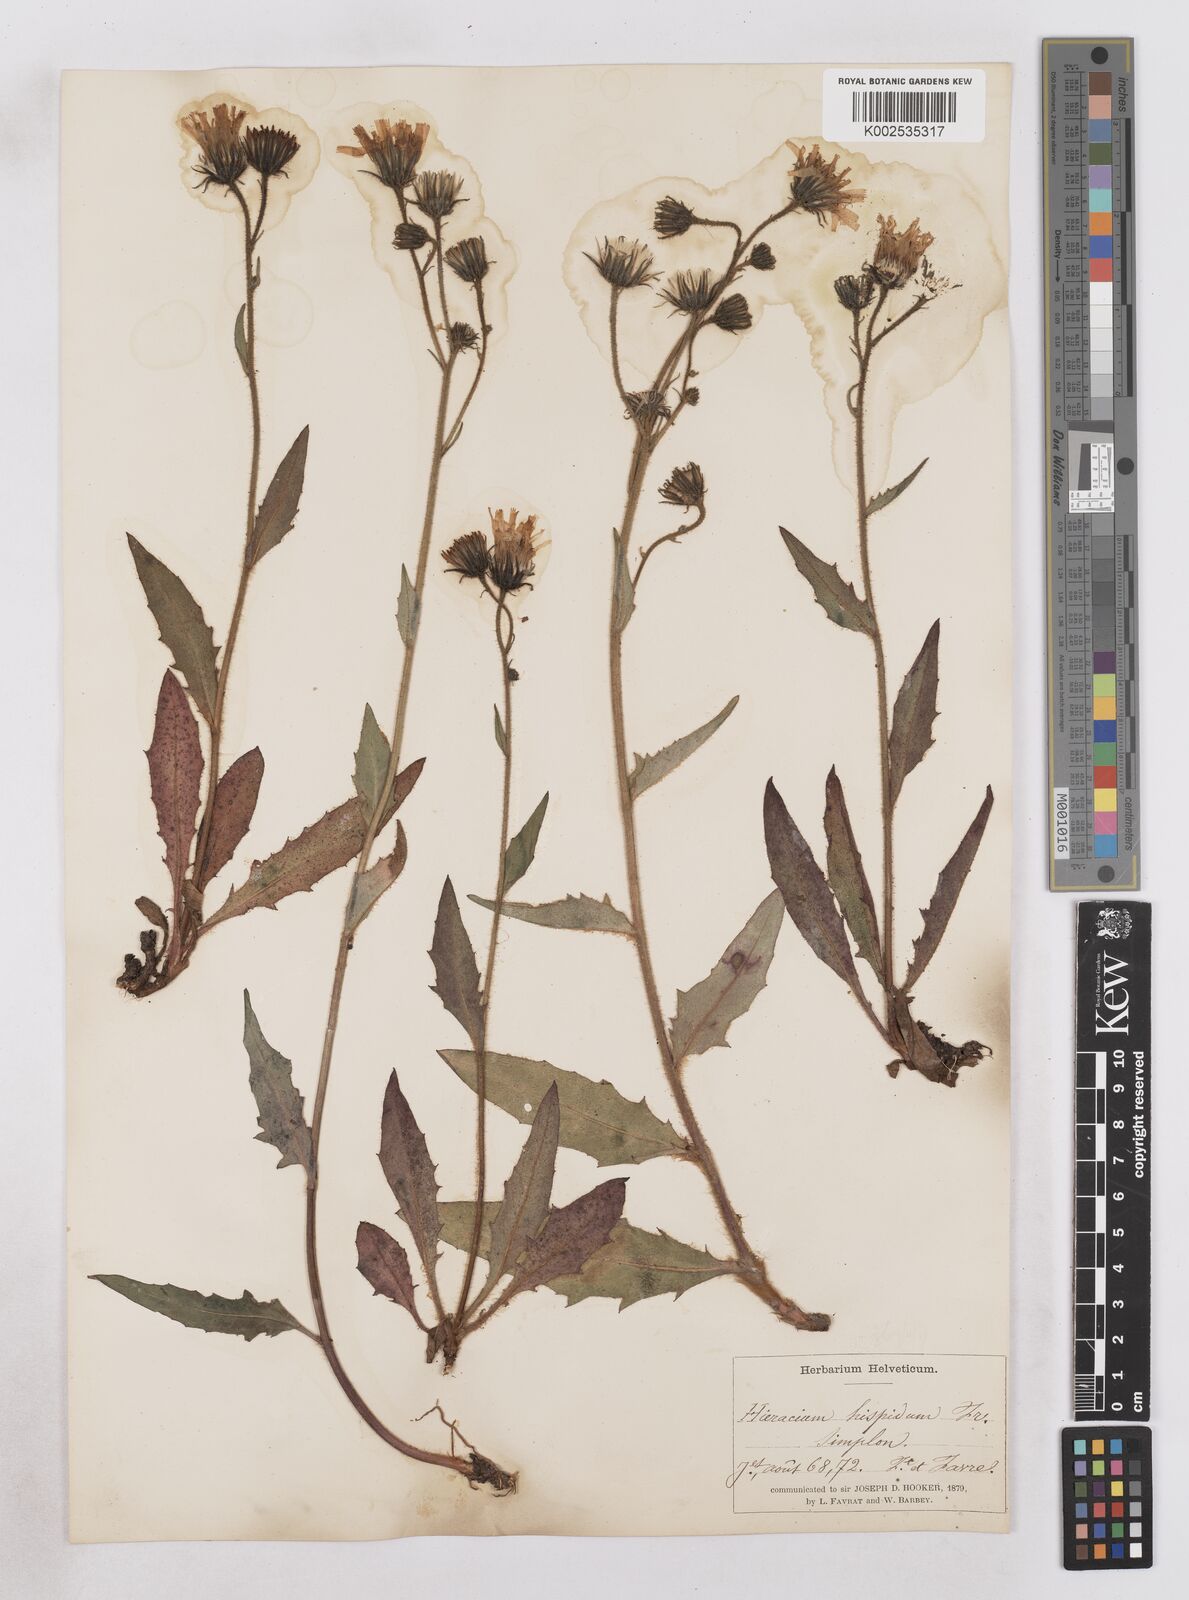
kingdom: Plantae
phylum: Tracheophyta
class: Magnoliopsida
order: Asterales
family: Asteraceae
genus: Hieracium
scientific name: Hieracium simia
